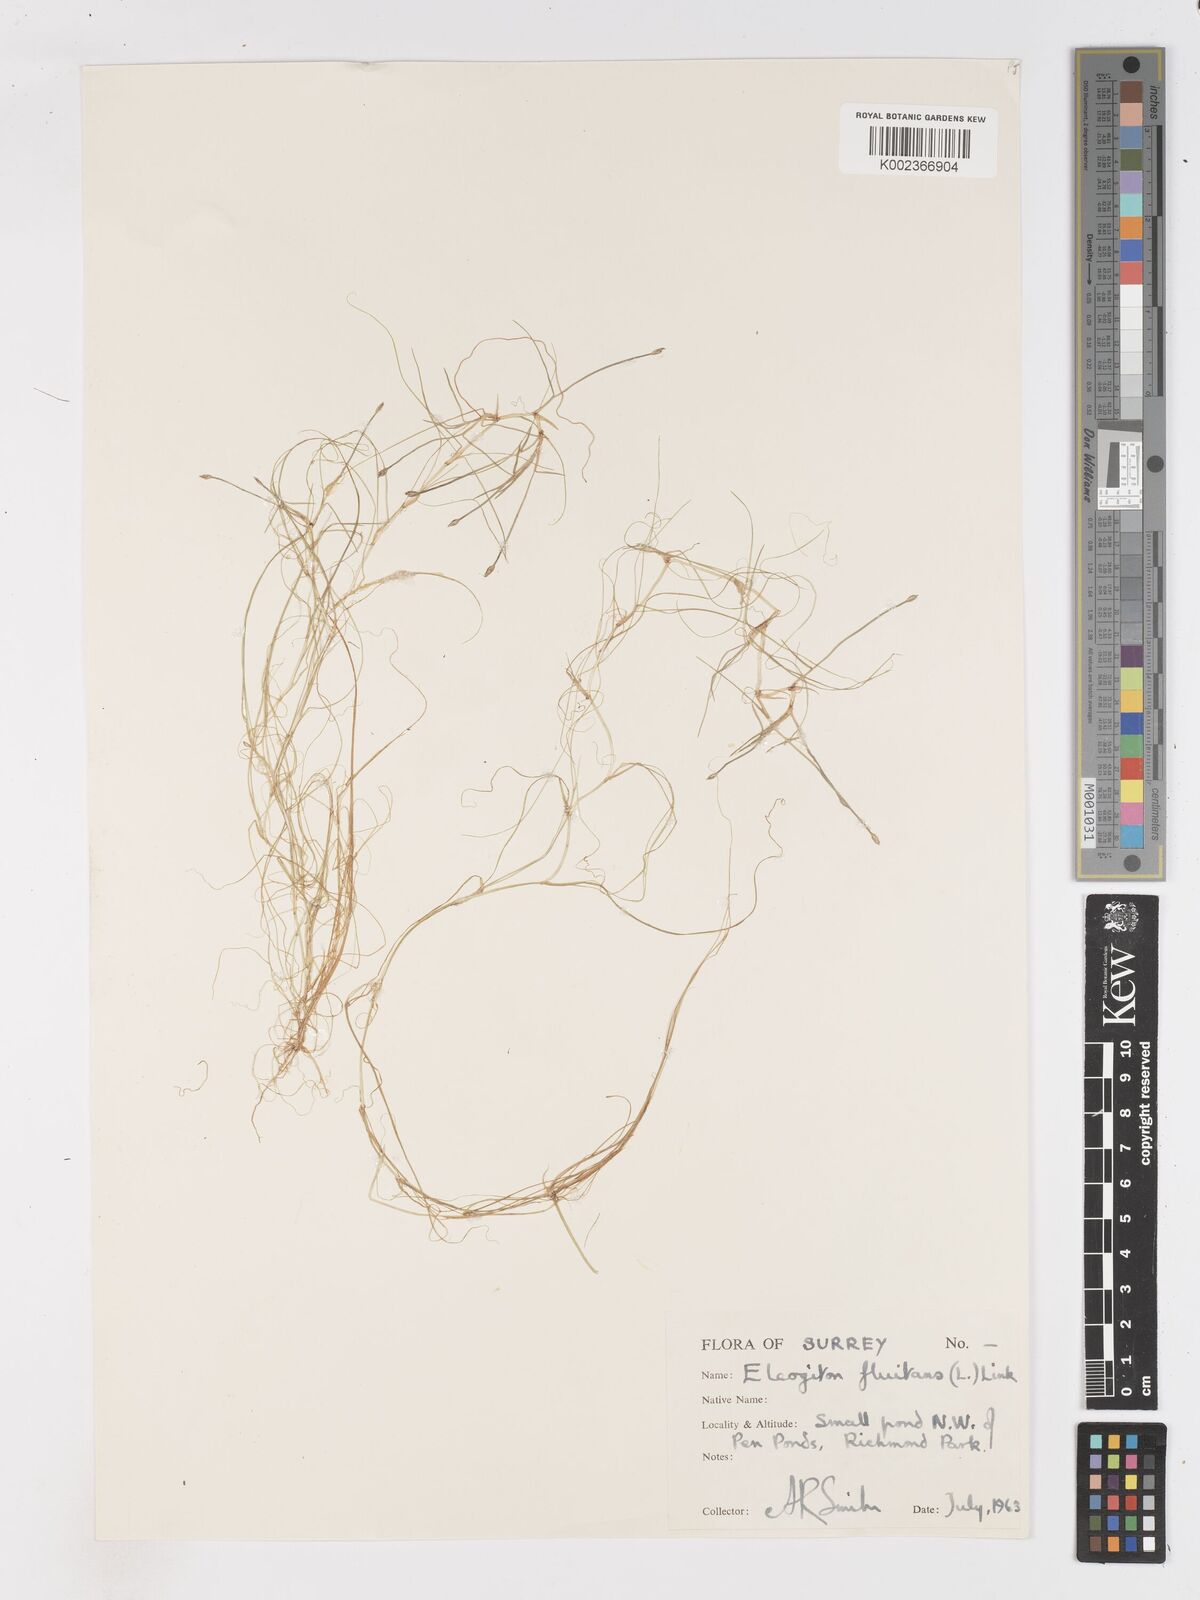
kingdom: Plantae
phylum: Tracheophyta
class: Liliopsida
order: Poales
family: Cyperaceae
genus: Isolepis
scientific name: Isolepis fluitans
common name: Floating club-rush
